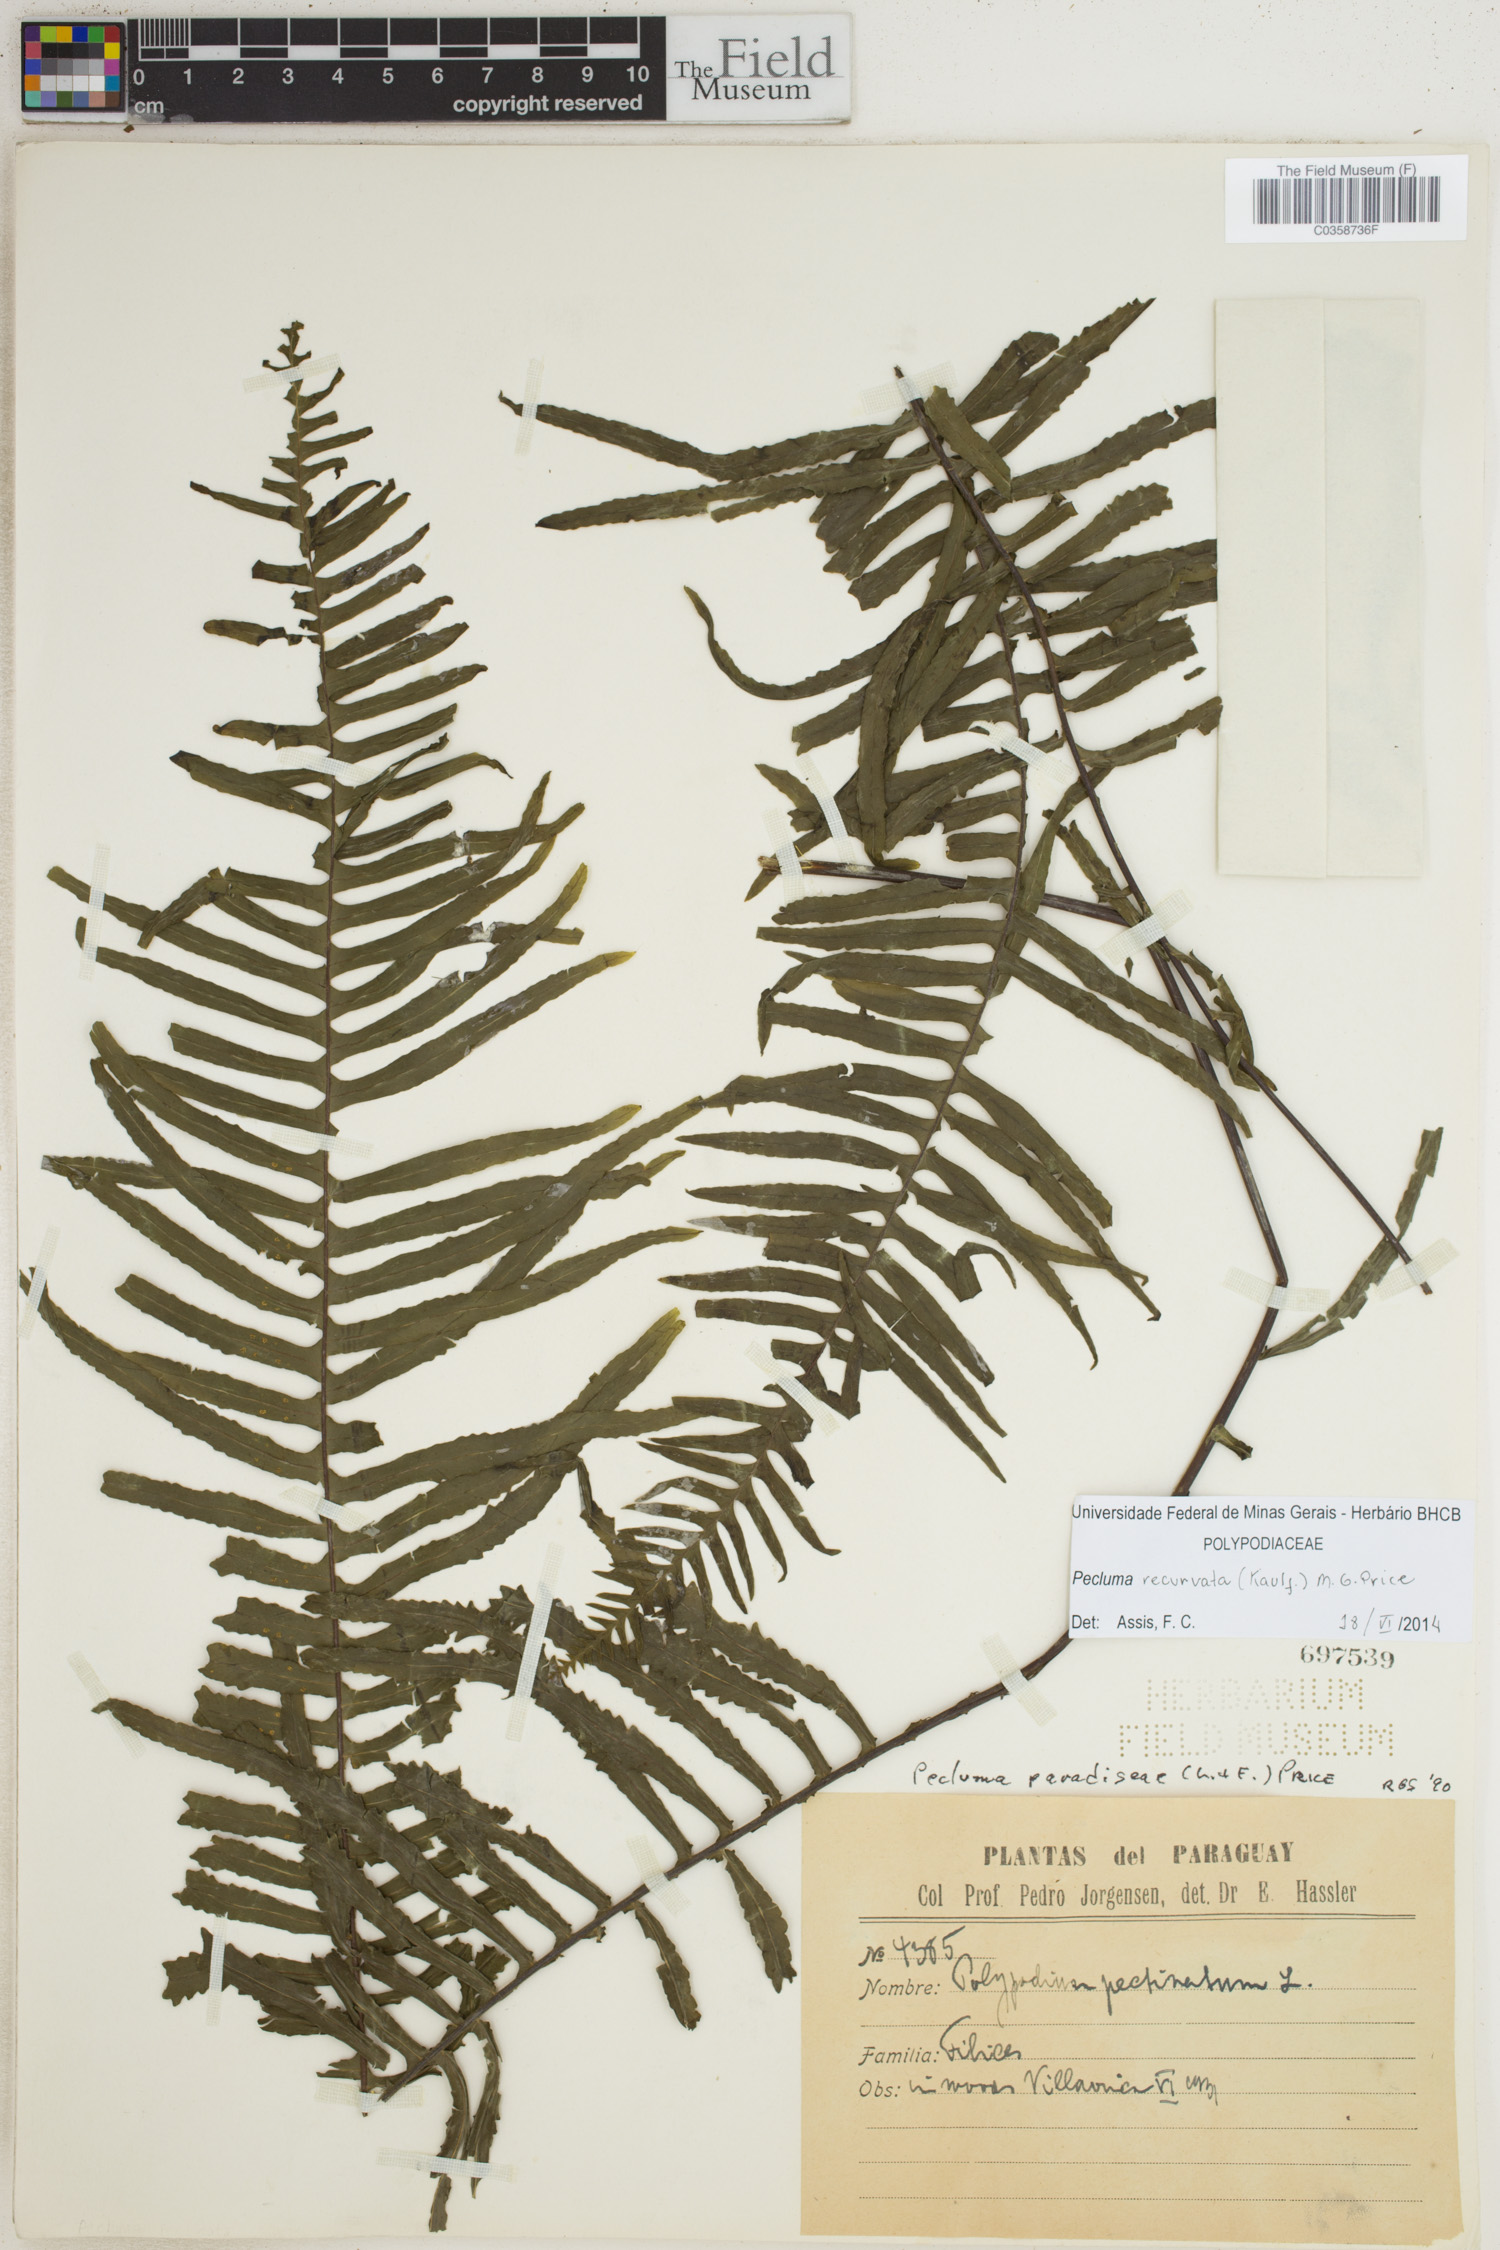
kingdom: Plantae
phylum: Tracheophyta
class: Polypodiopsida
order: Polypodiales
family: Polypodiaceae
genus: Pecluma
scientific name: Pecluma recurvata
